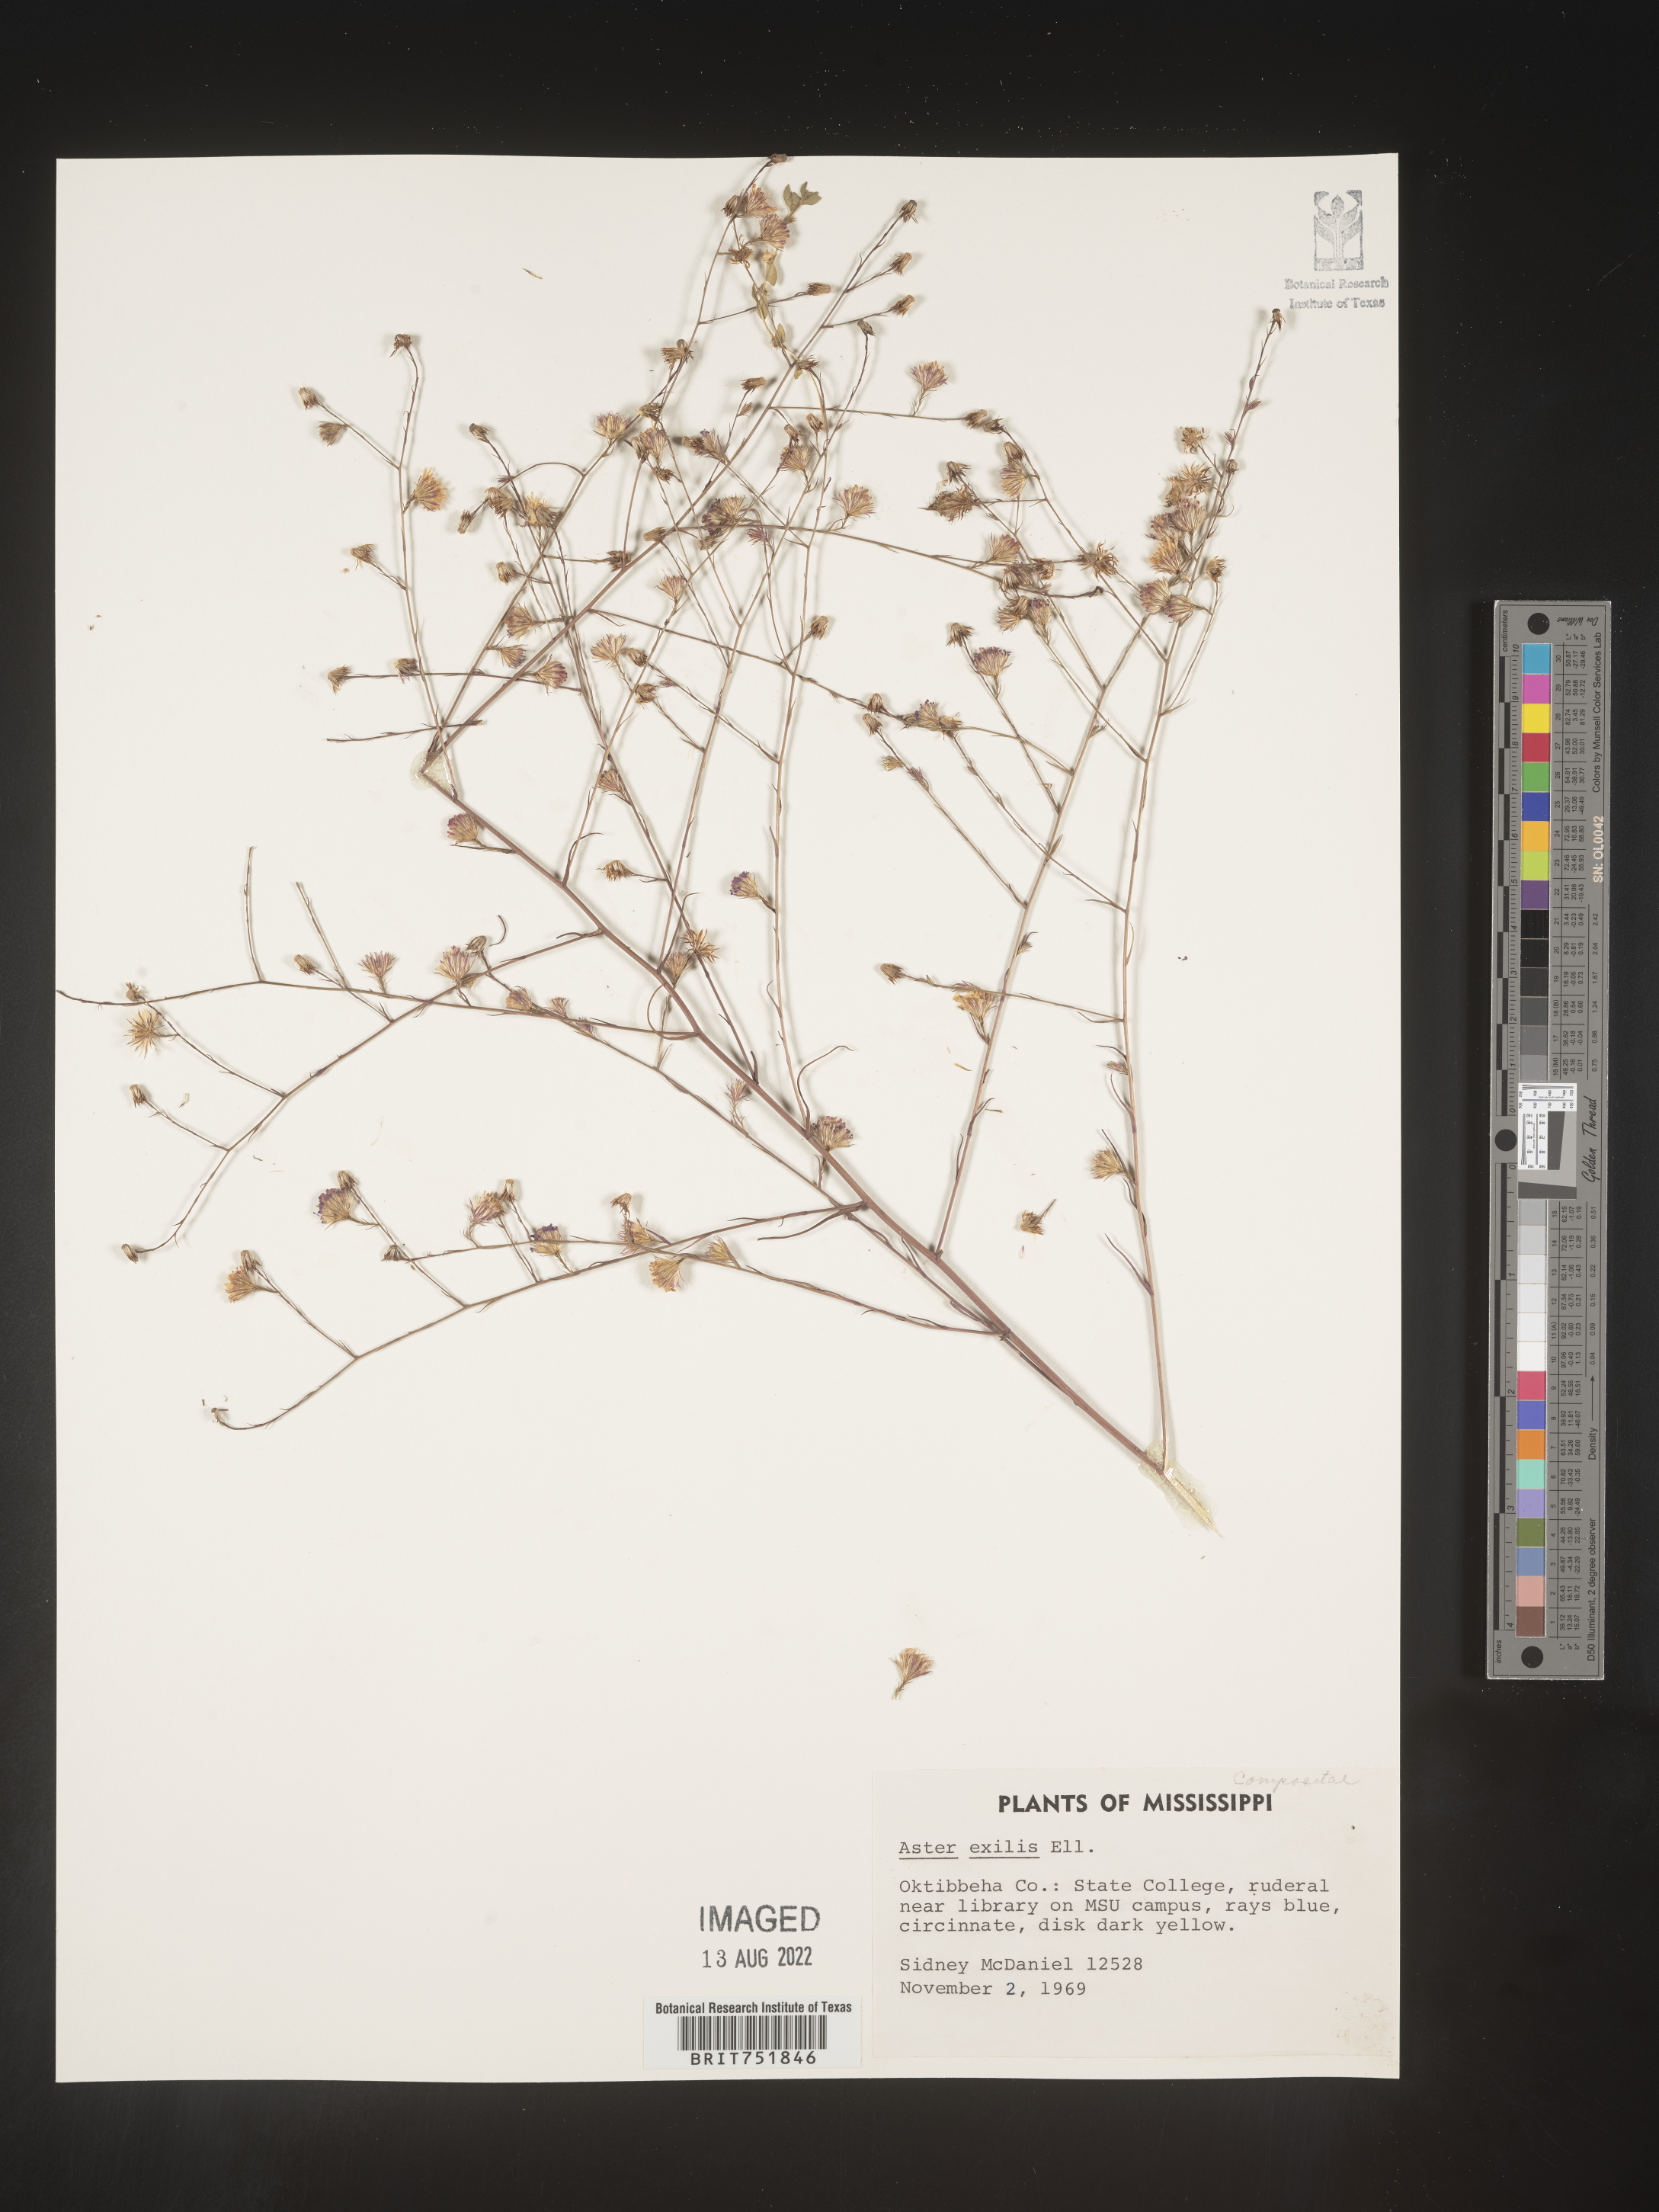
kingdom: Plantae
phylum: Tracheophyta
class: Magnoliopsida
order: Asterales
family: Asteraceae
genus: Symphyotrichum
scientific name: Symphyotrichum divaricatum
